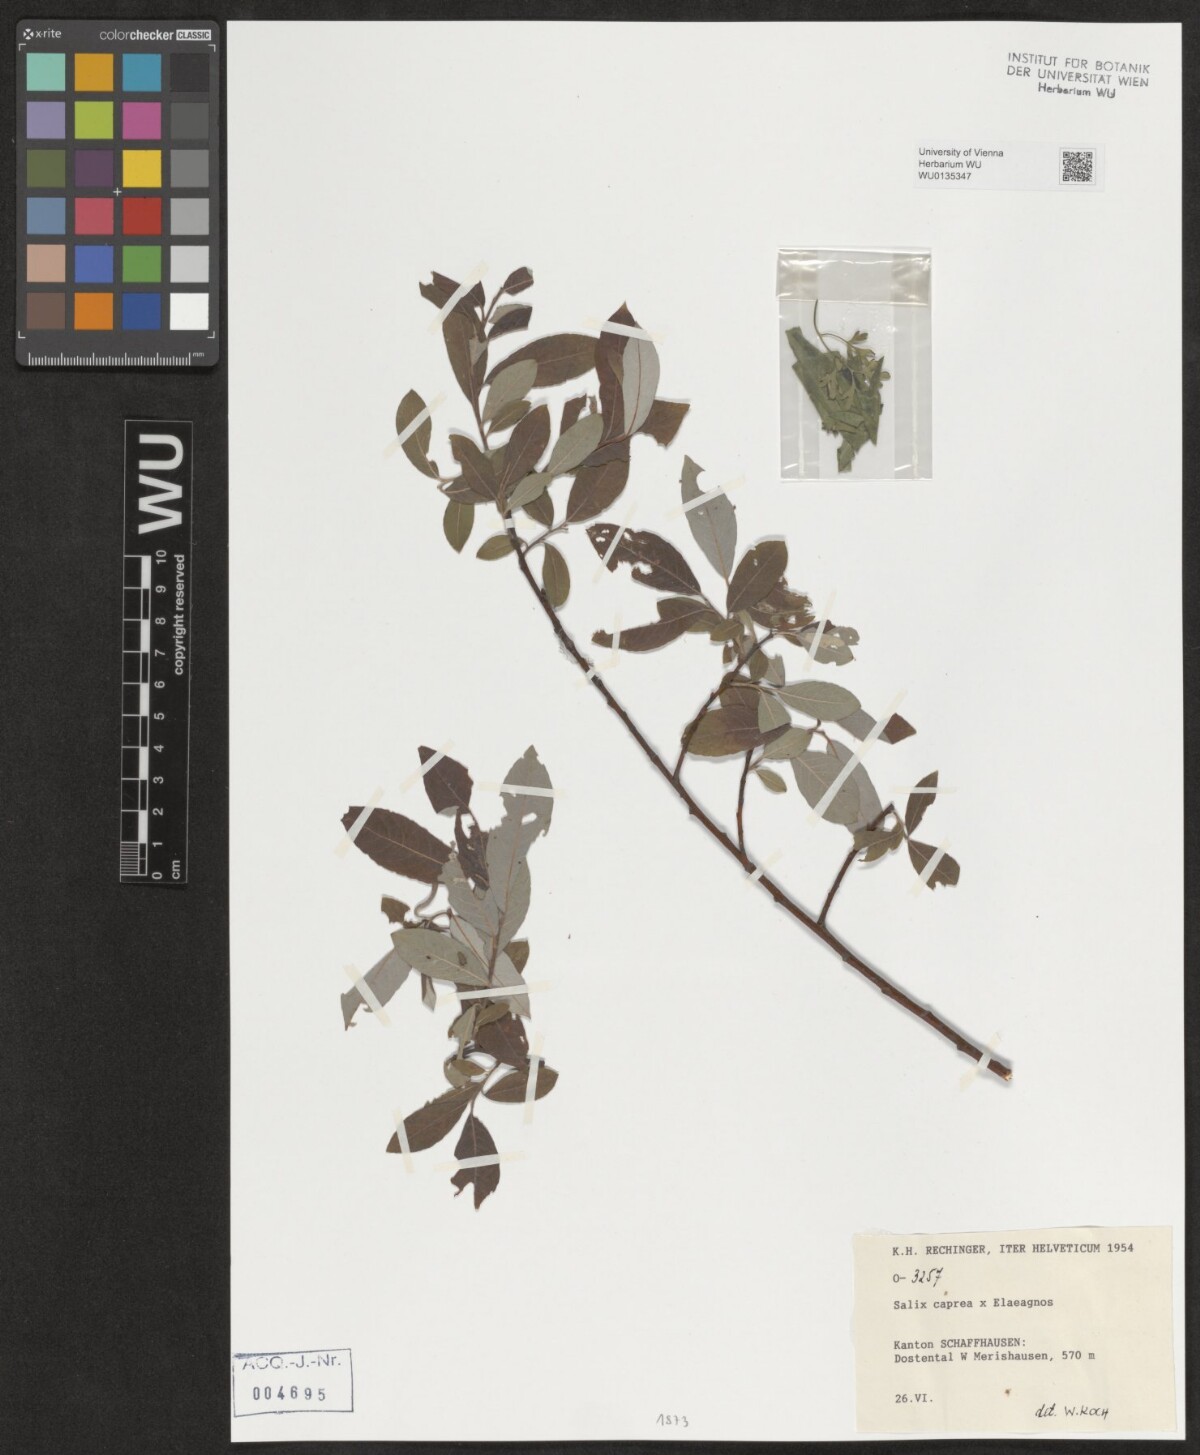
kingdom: Plantae
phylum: Tracheophyta
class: Magnoliopsida
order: Malpighiales
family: Salicaceae
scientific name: Salicaceae
